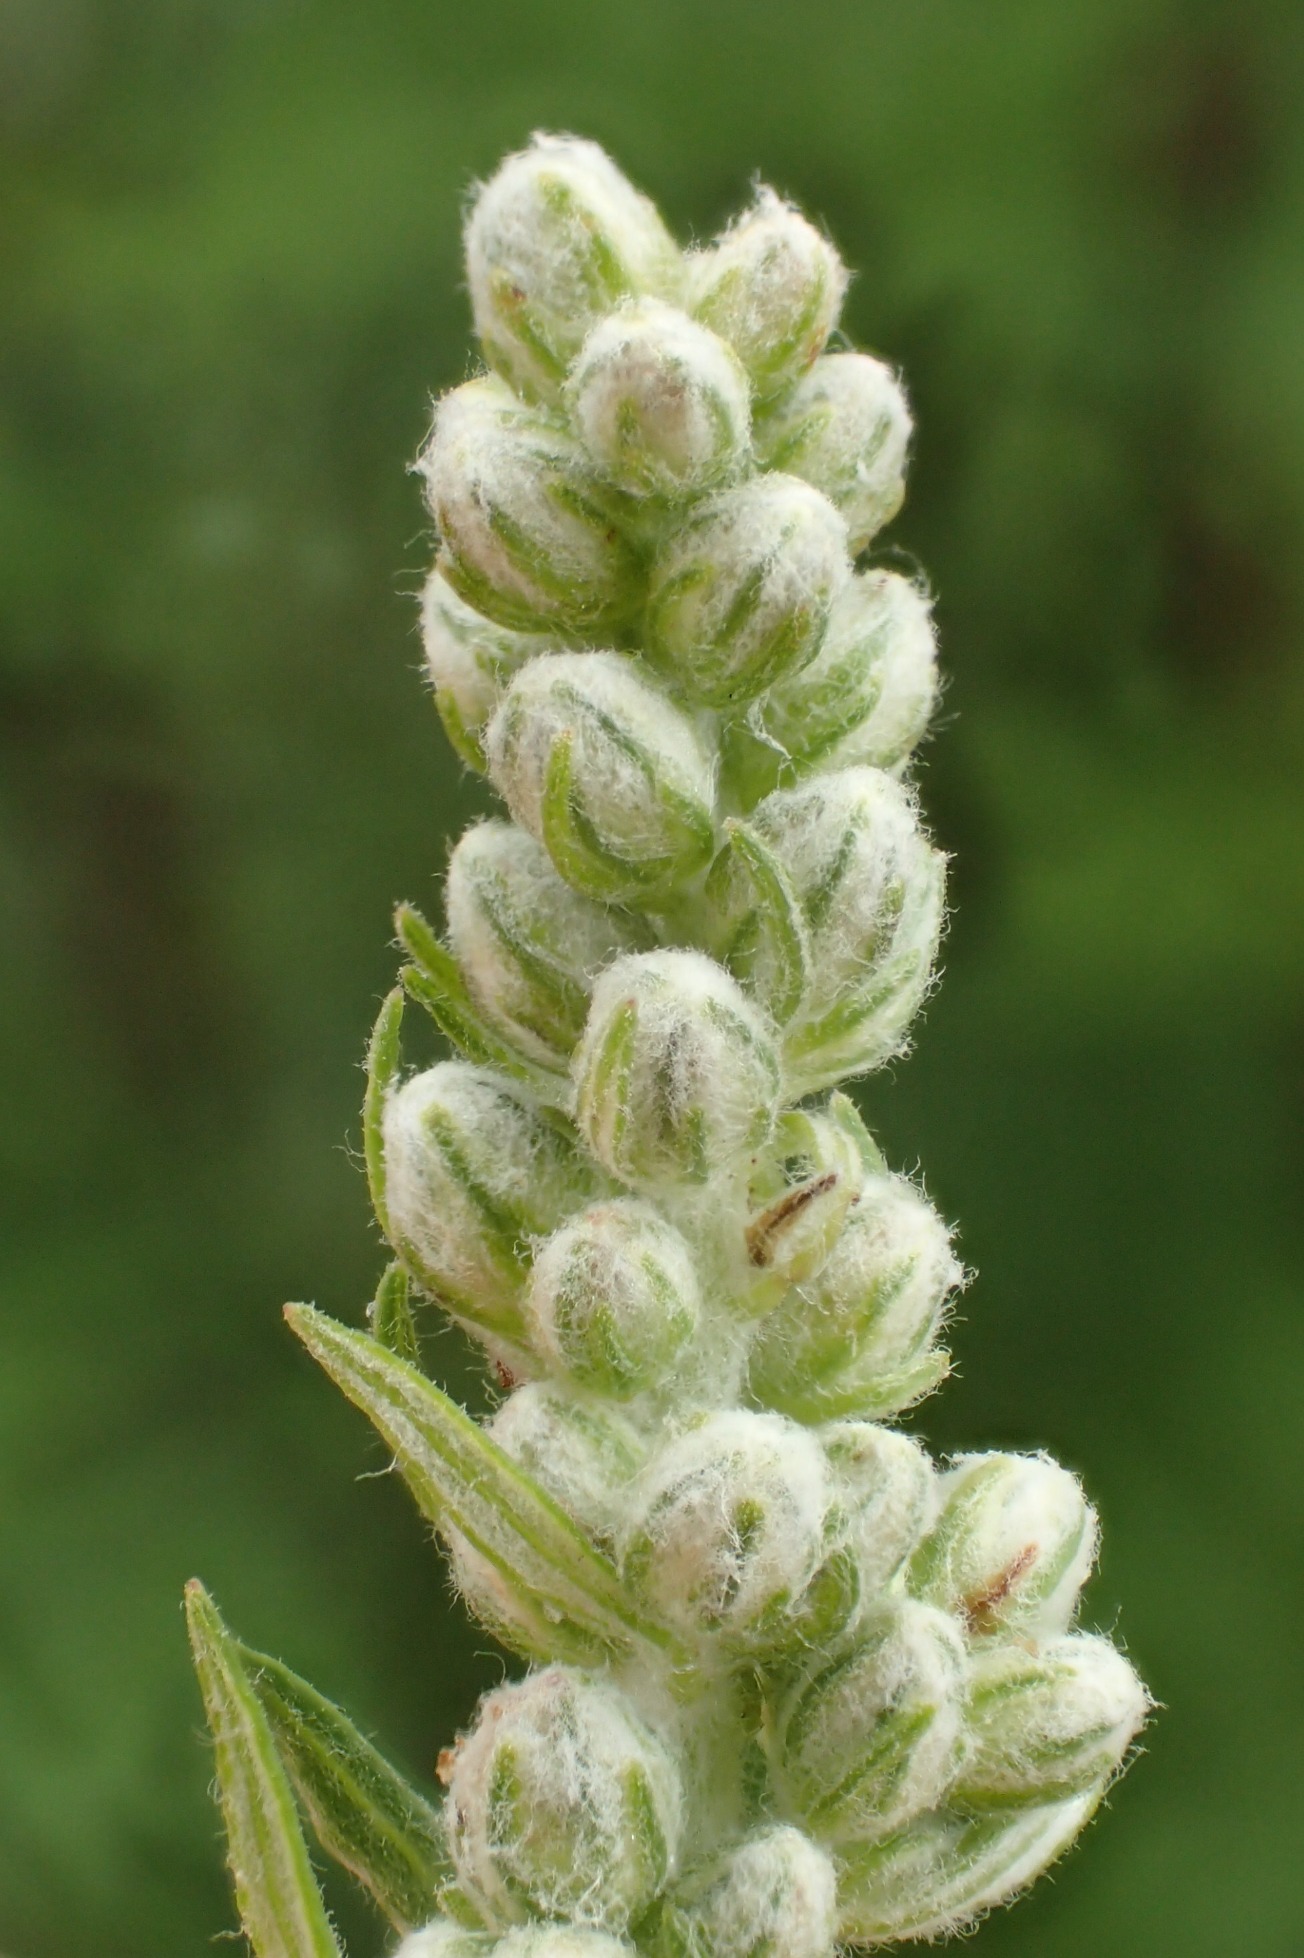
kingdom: Plantae
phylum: Tracheophyta
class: Magnoliopsida
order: Asterales
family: Asteraceae
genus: Artemisia
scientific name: Artemisia vulgaris
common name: Grå-bynke
